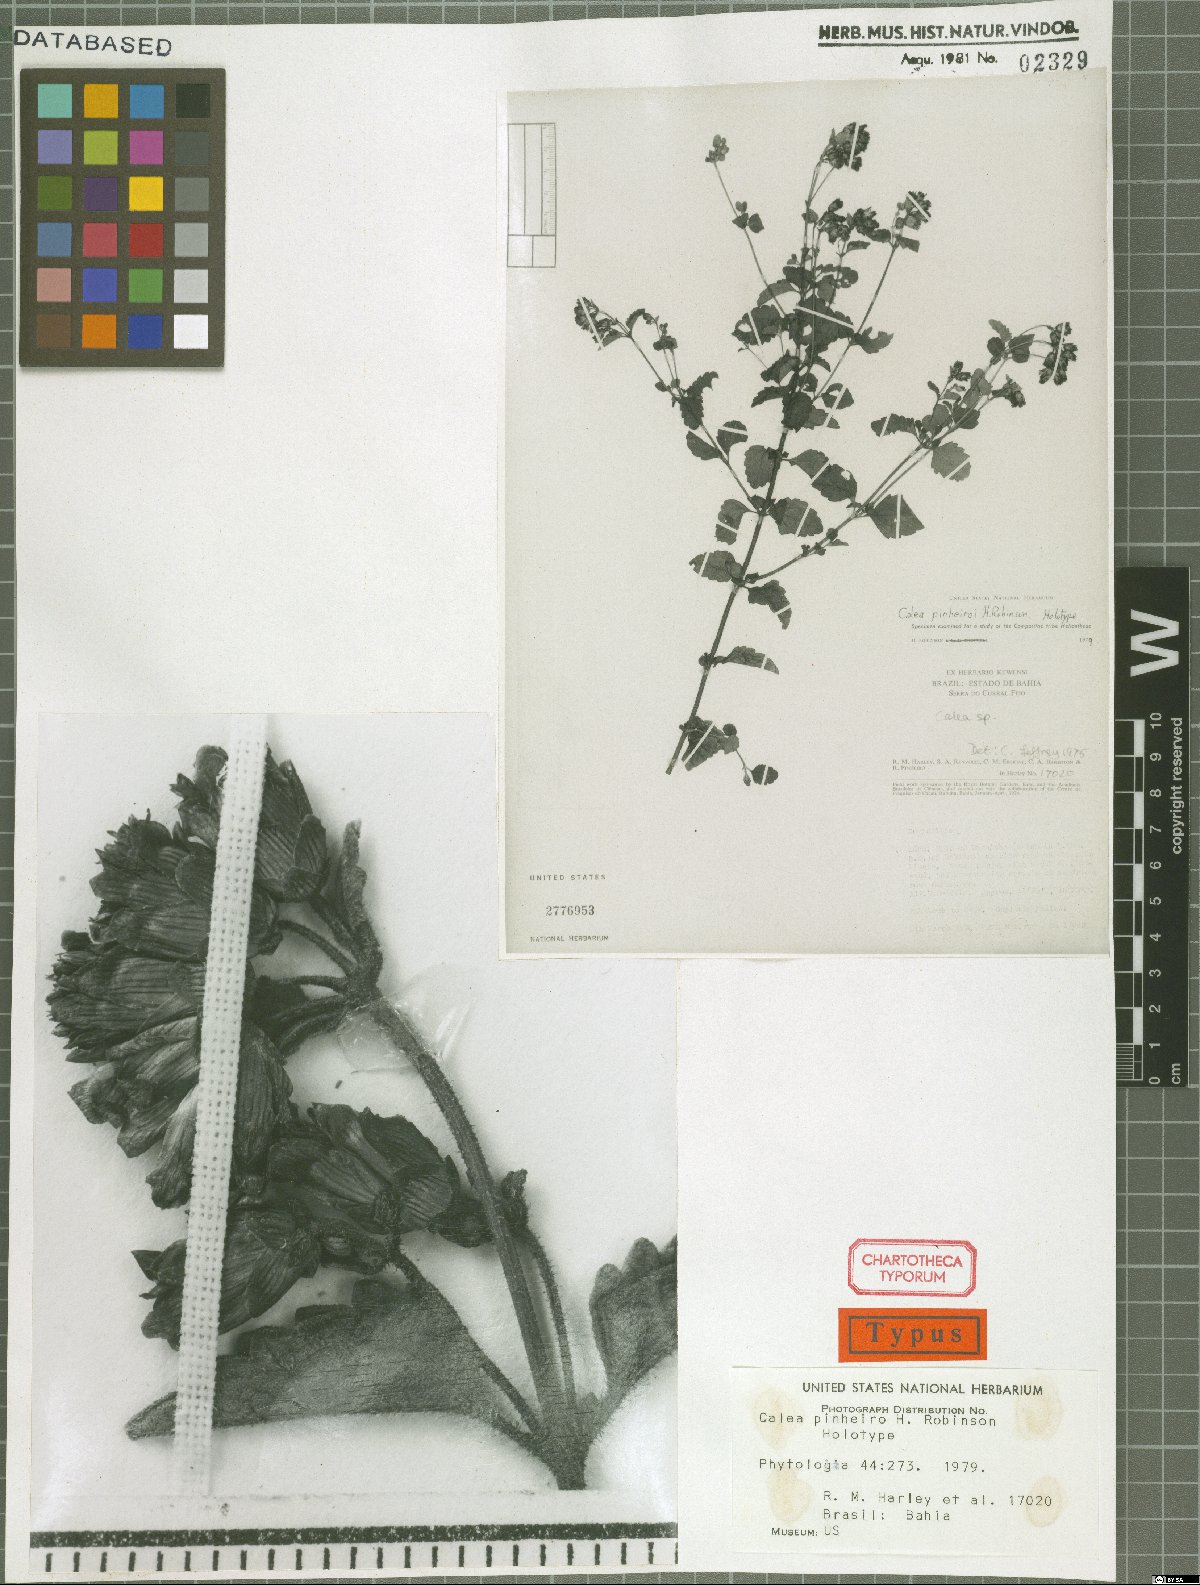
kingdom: Plantae
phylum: Tracheophyta
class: Magnoliopsida
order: Asterales
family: Asteraceae
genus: Calea
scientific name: Calea pinheiroi
